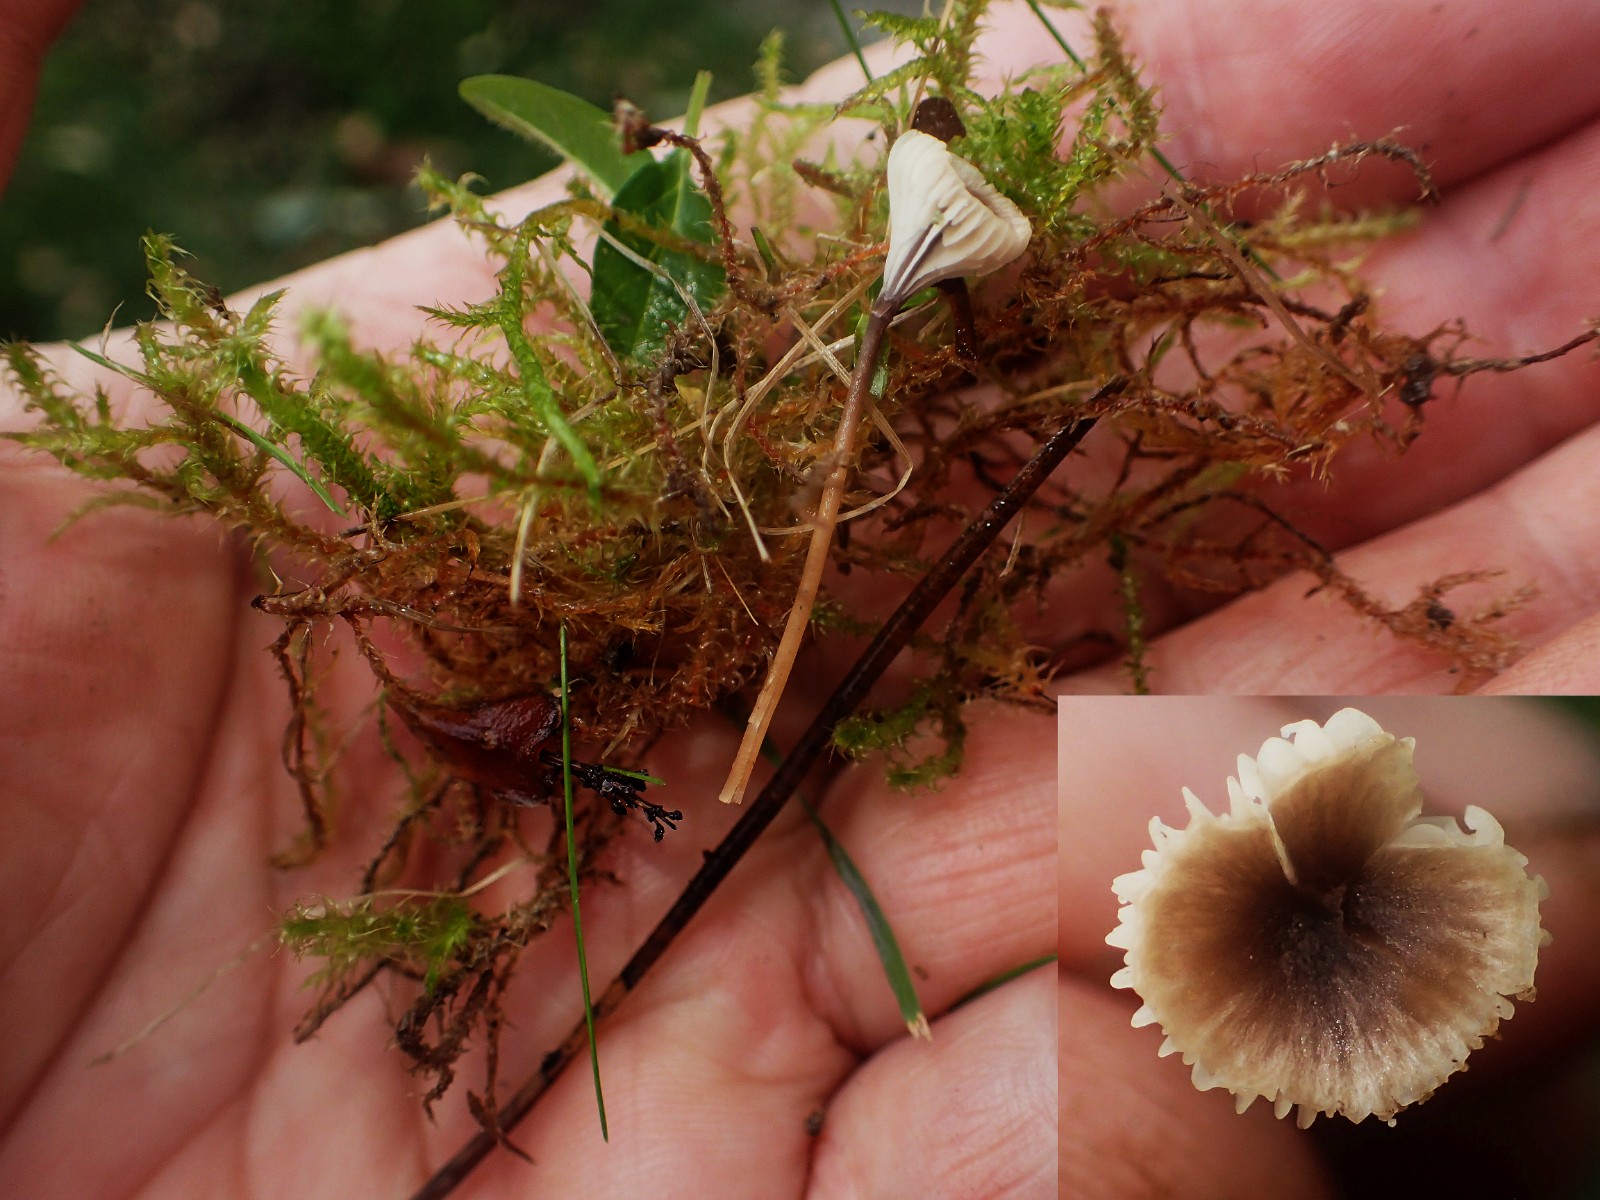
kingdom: Fungi
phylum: Basidiomycota
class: Agaricomycetes
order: Hymenochaetales
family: Rickenellaceae
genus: Rickenella
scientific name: Rickenella swartzii
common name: finstokket mosnavlehat
